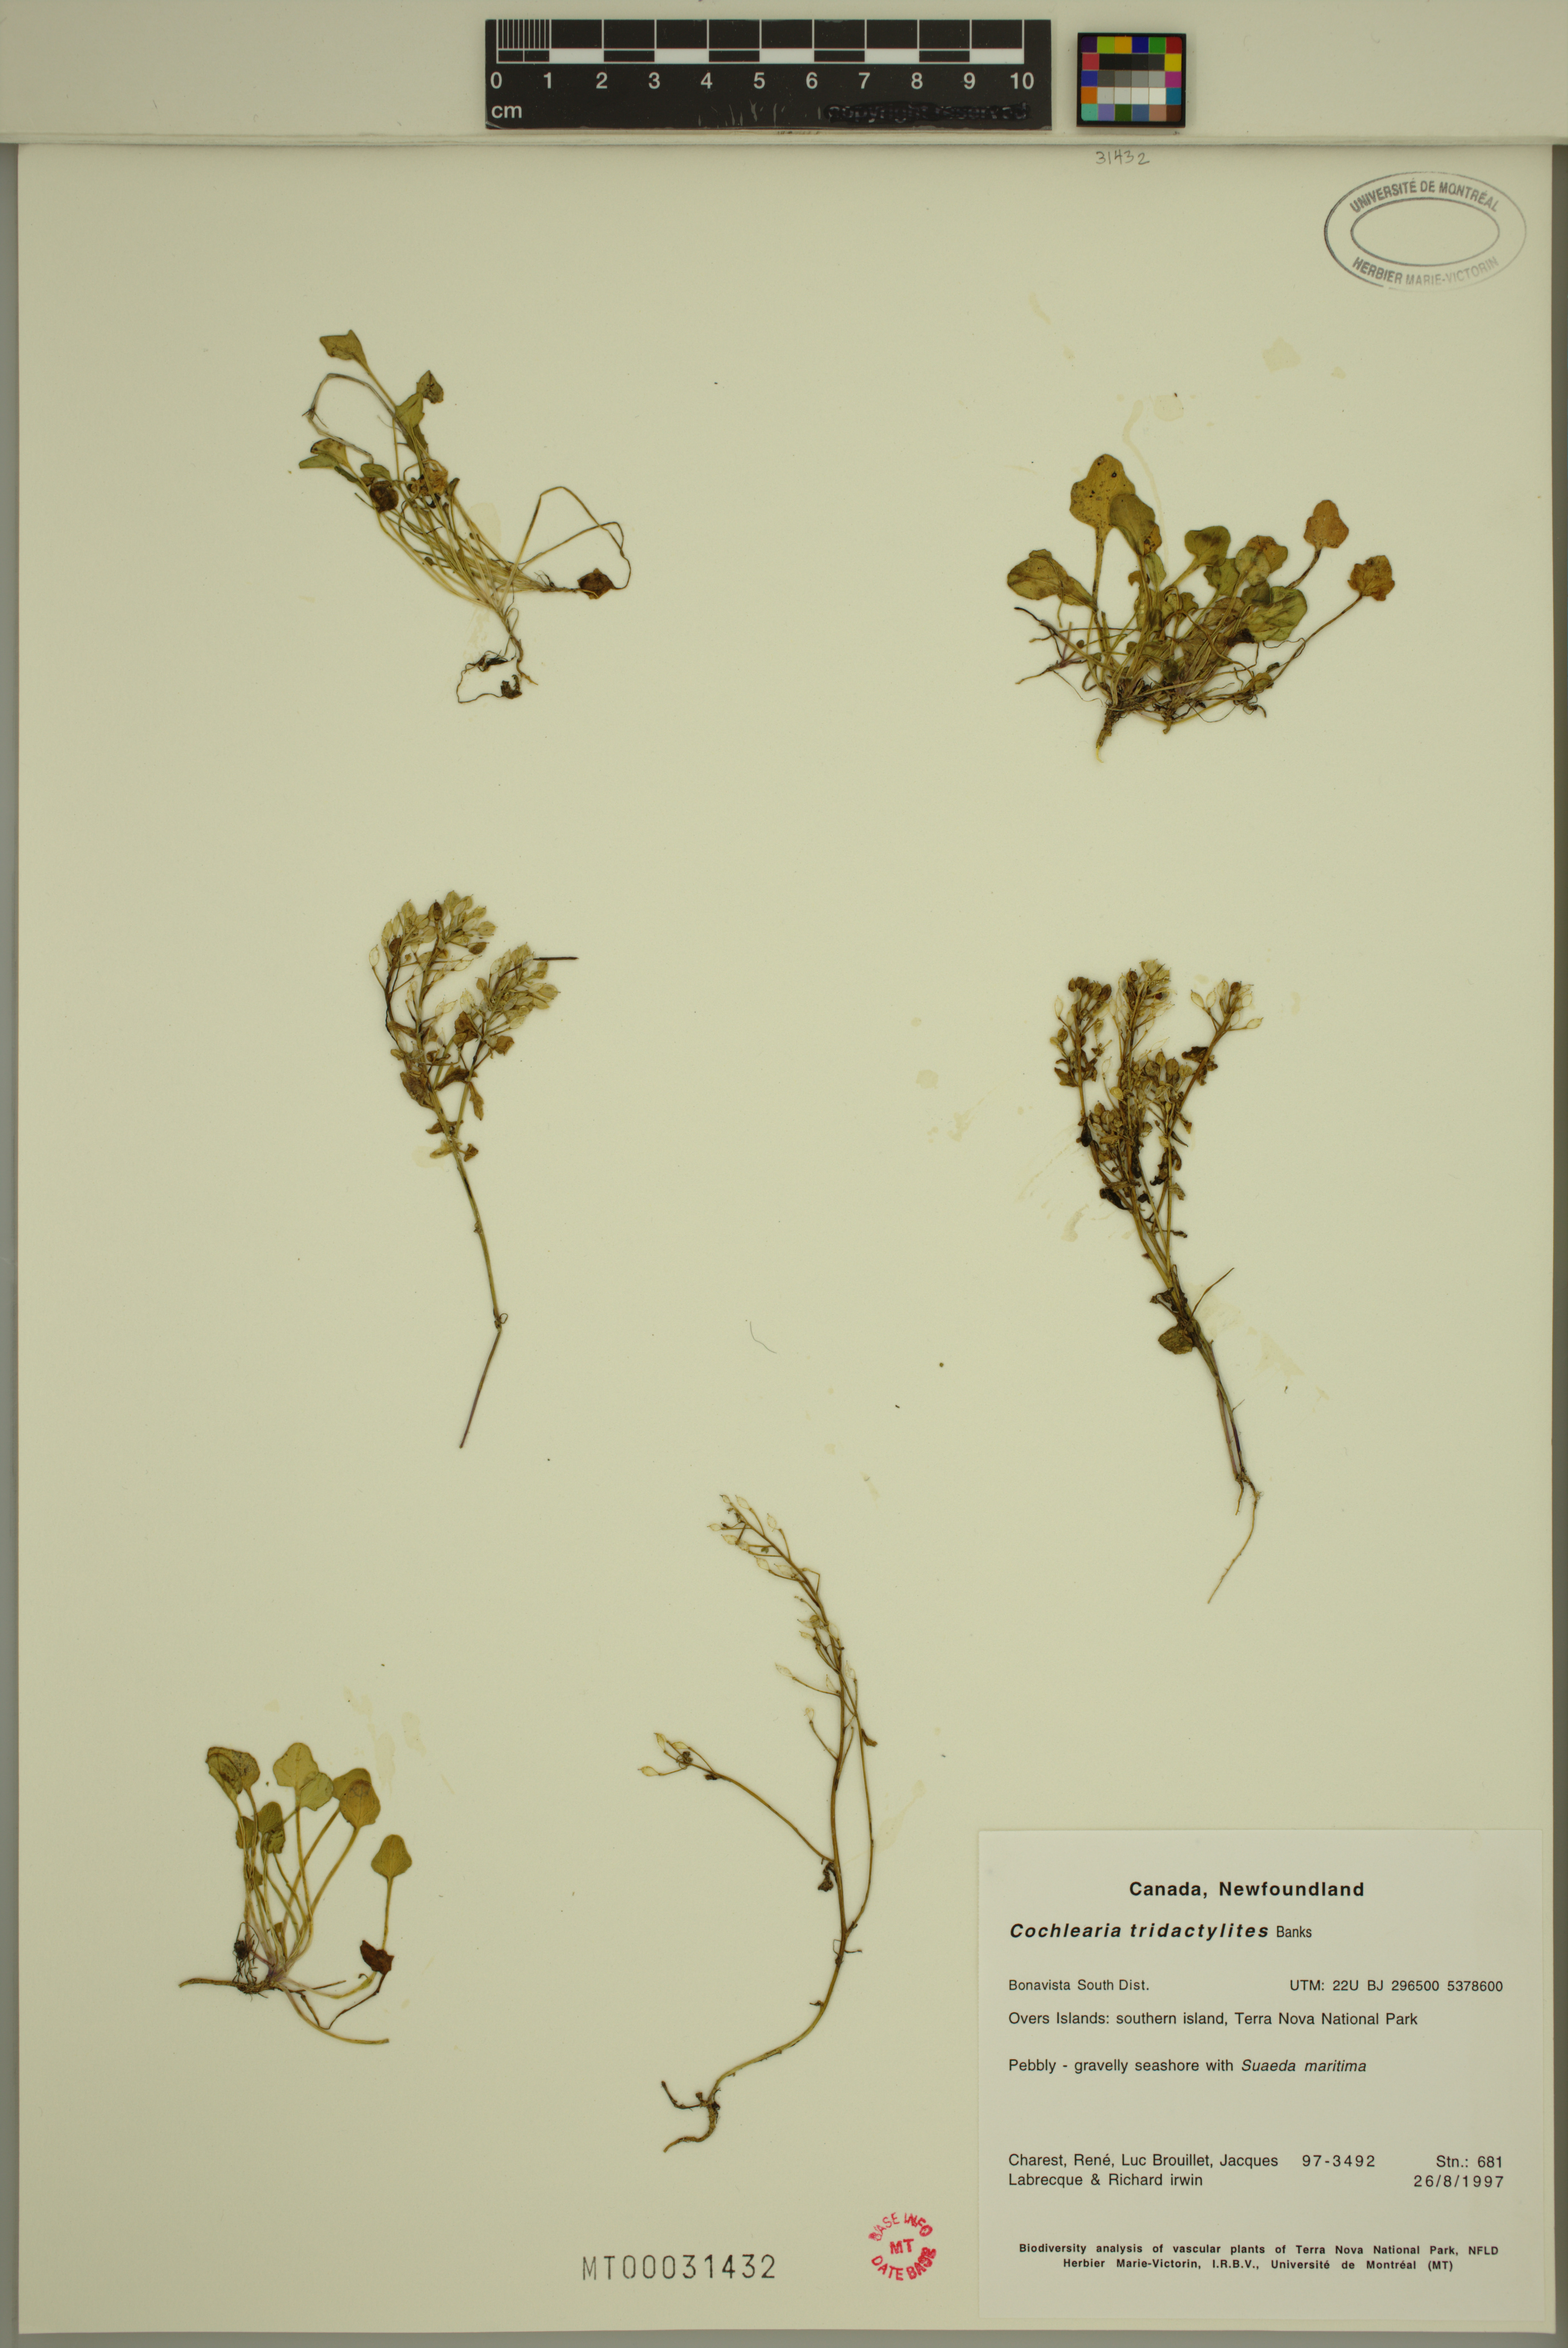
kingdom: Plantae
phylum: Tracheophyta
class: Magnoliopsida
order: Brassicales
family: Brassicaceae
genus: Cochlearia
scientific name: Cochlearia tridactylites
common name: Limestone scurvygrass
